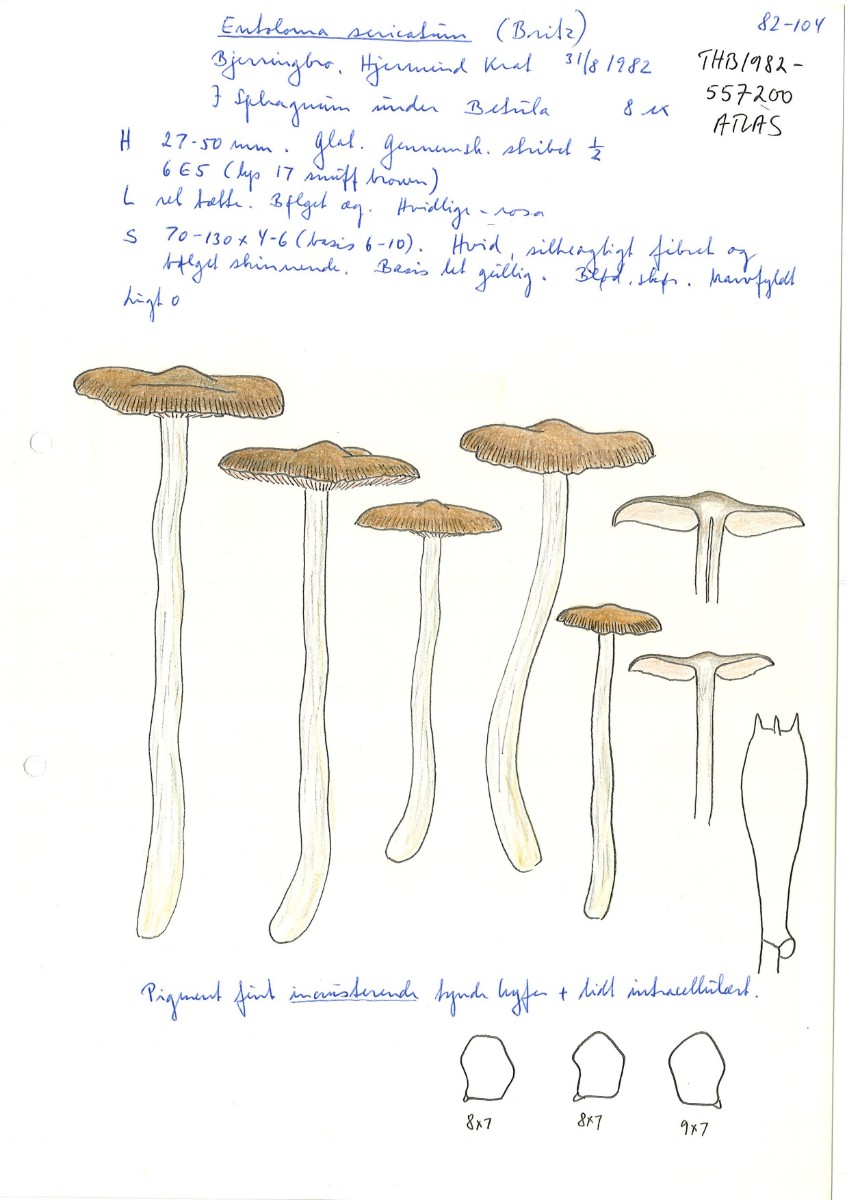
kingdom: Fungi
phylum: Basidiomycota
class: Agaricomycetes
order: Agaricales
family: Entolomataceae
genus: Entoloma
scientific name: Entoloma sericatum
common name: rank rødblad
